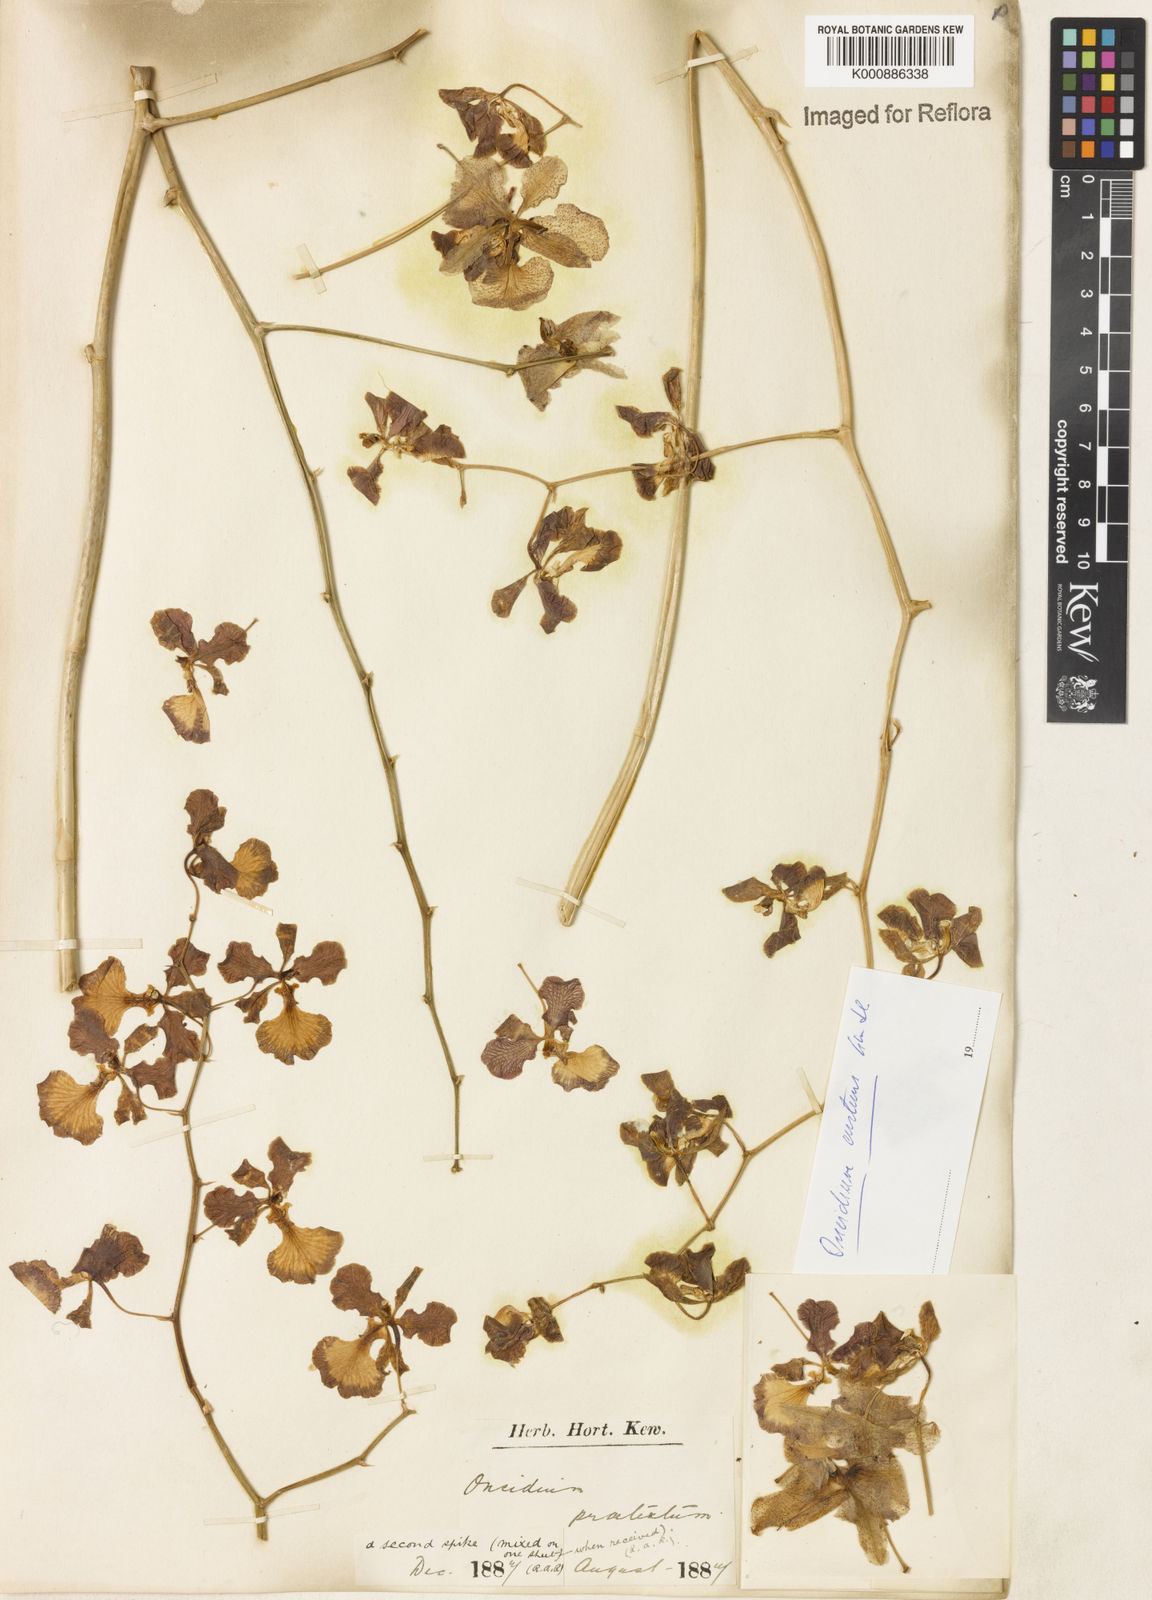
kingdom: Plantae
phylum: Tracheophyta
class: Liliopsida
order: Asparagales
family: Orchidaceae
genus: Gomesa
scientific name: Gomesa gardneri
